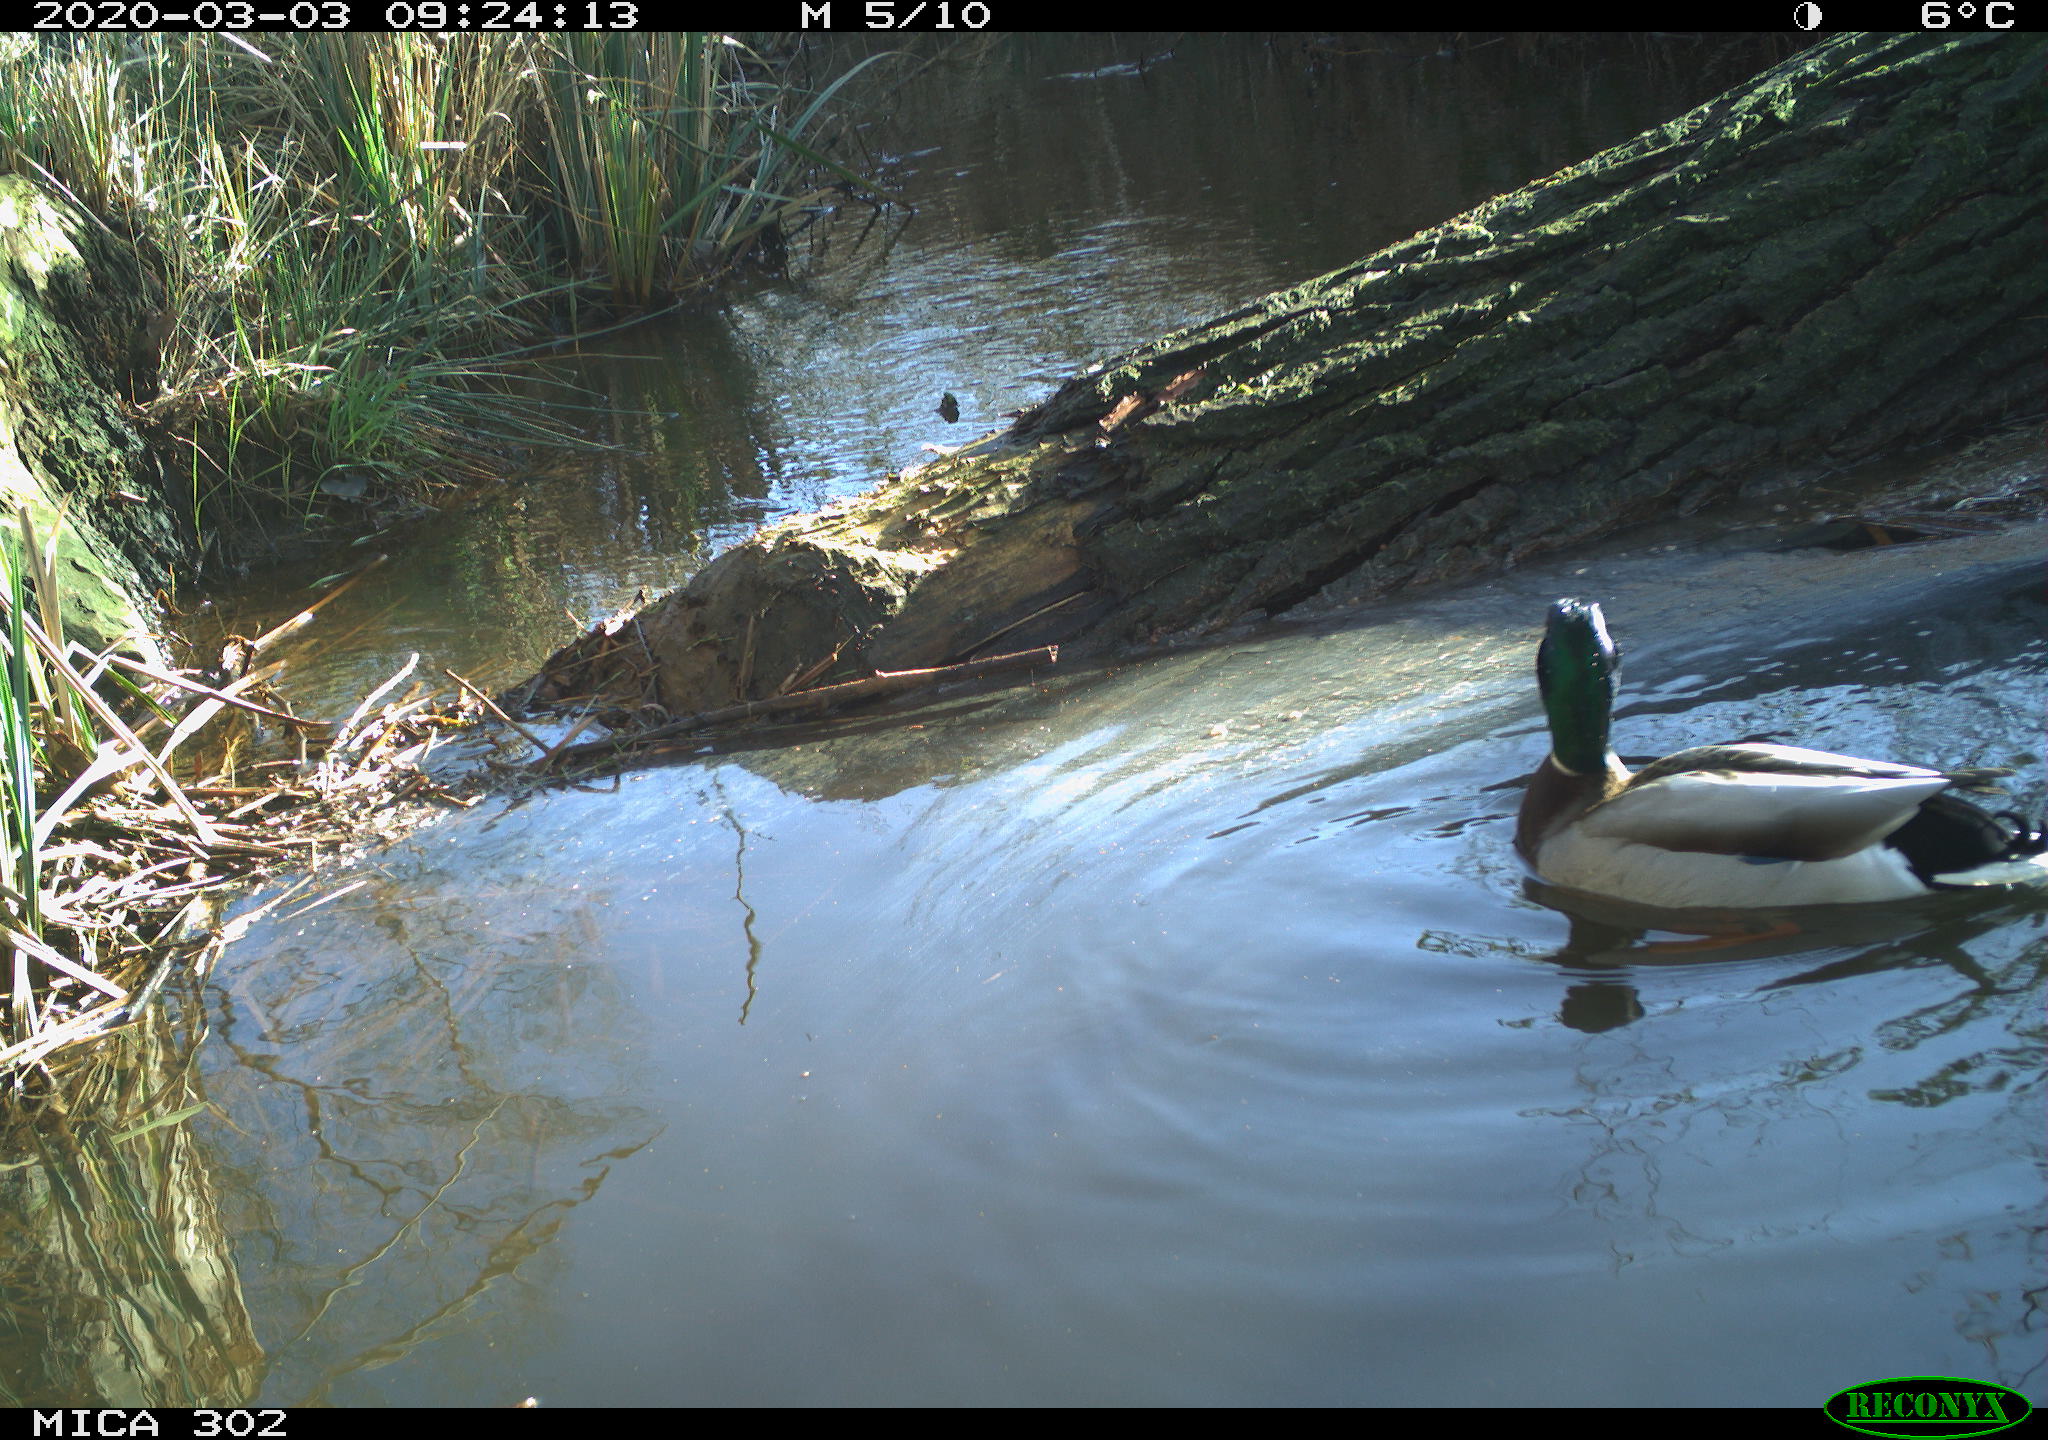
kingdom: Animalia
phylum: Chordata
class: Aves
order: Anseriformes
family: Anatidae
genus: Anas
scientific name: Anas platyrhynchos
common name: Mallard
